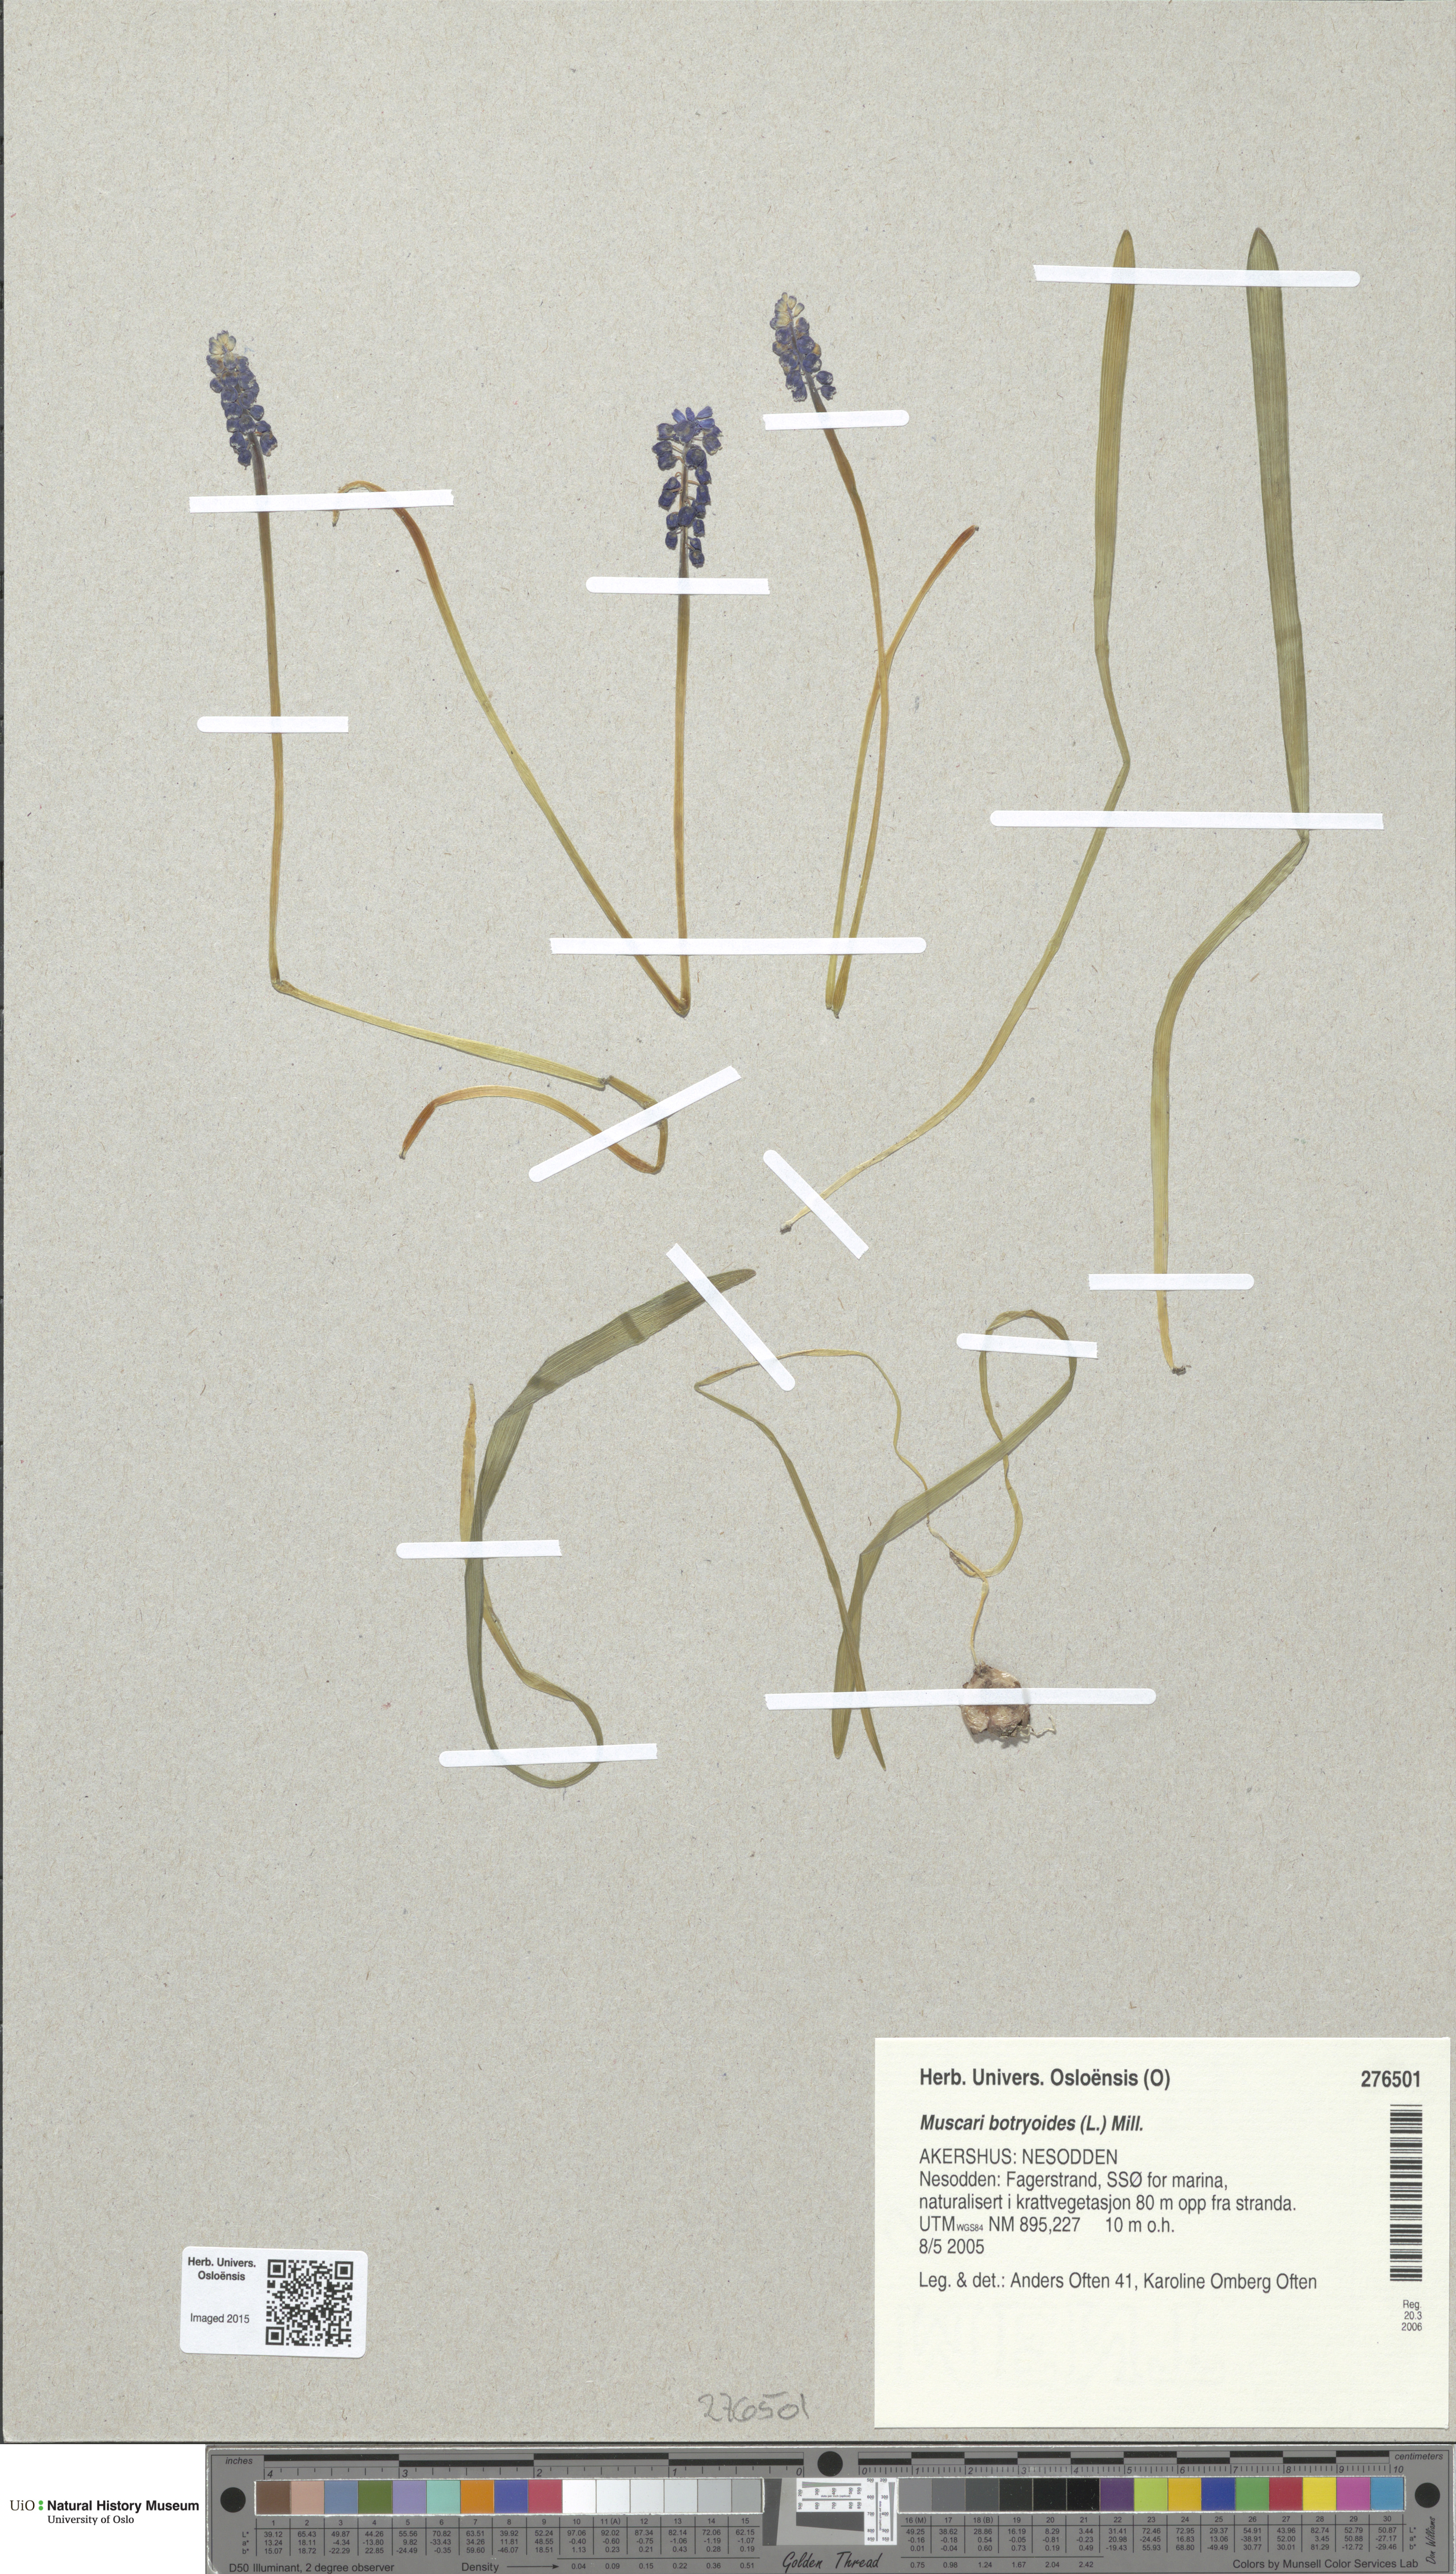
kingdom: Plantae
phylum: Tracheophyta
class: Liliopsida
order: Asparagales
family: Asparagaceae
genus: Muscari
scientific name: Muscari botryoides
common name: Compact grape-hyacinth
